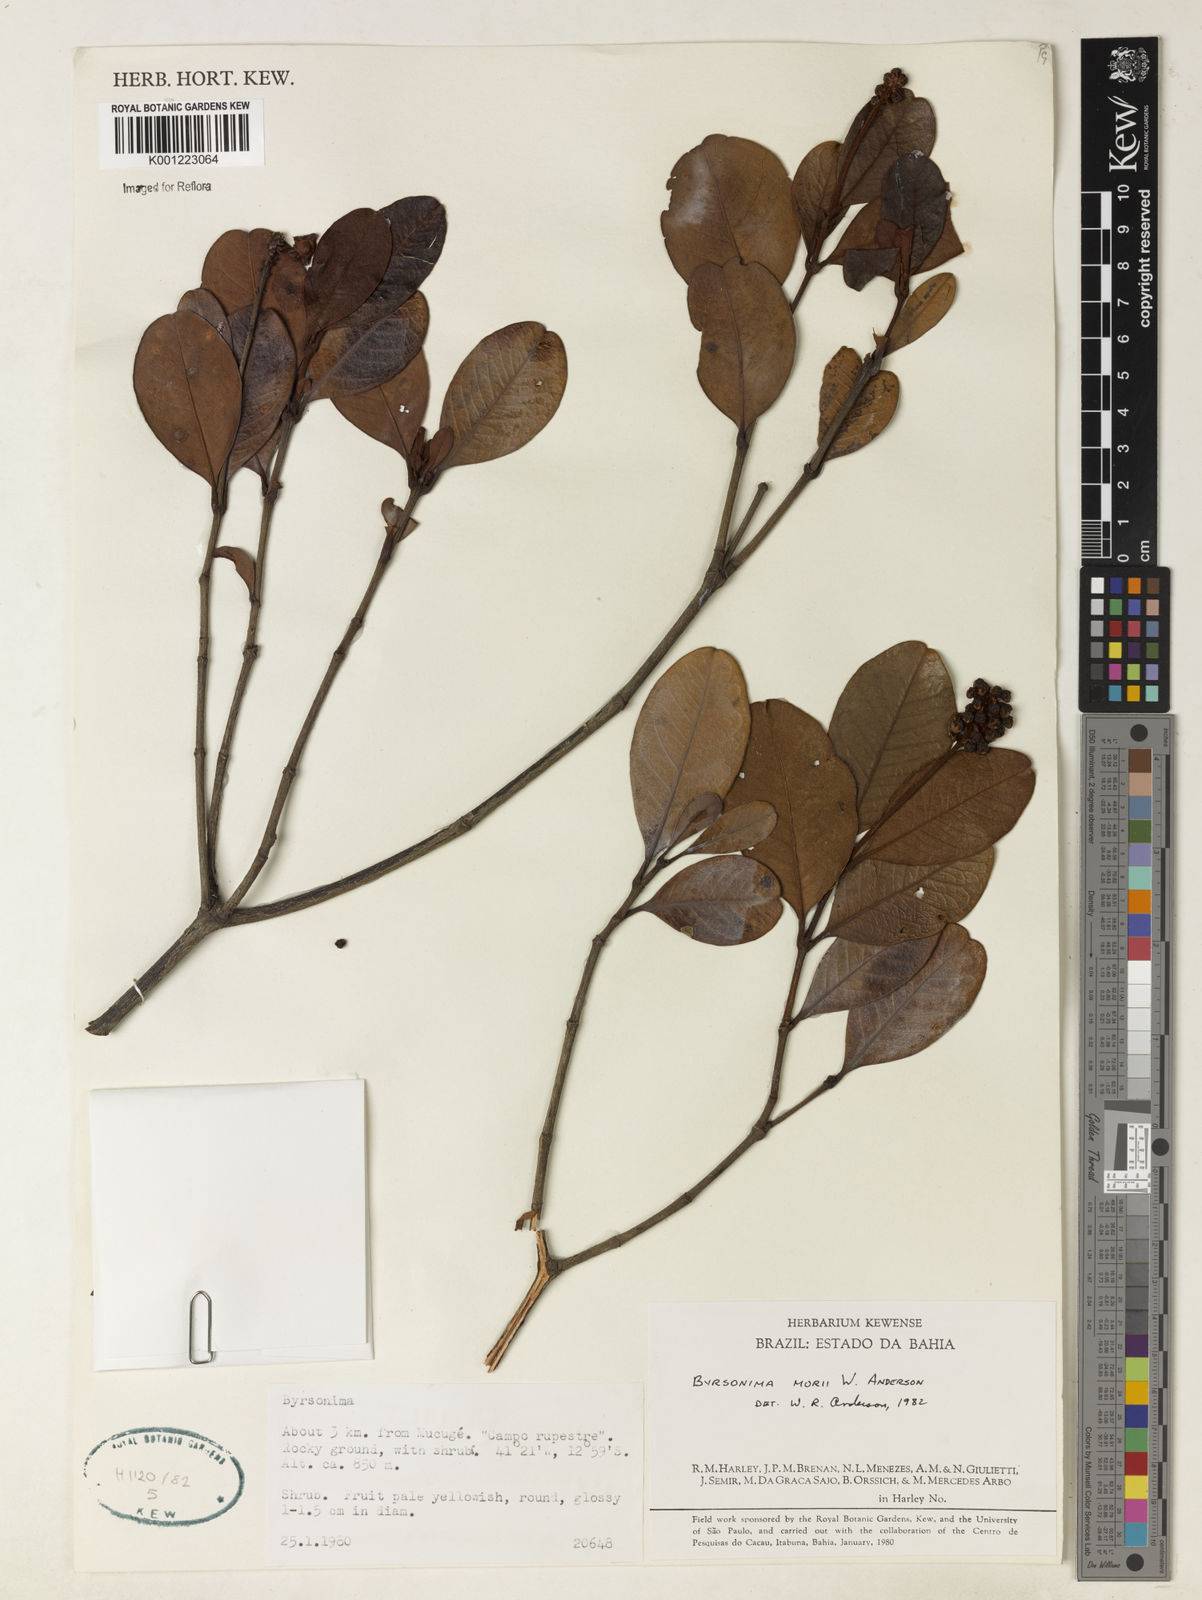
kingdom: Plantae
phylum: Tracheophyta
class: Magnoliopsida
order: Malpighiales
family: Malpighiaceae
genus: Byrsonima
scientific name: Byrsonima morii
